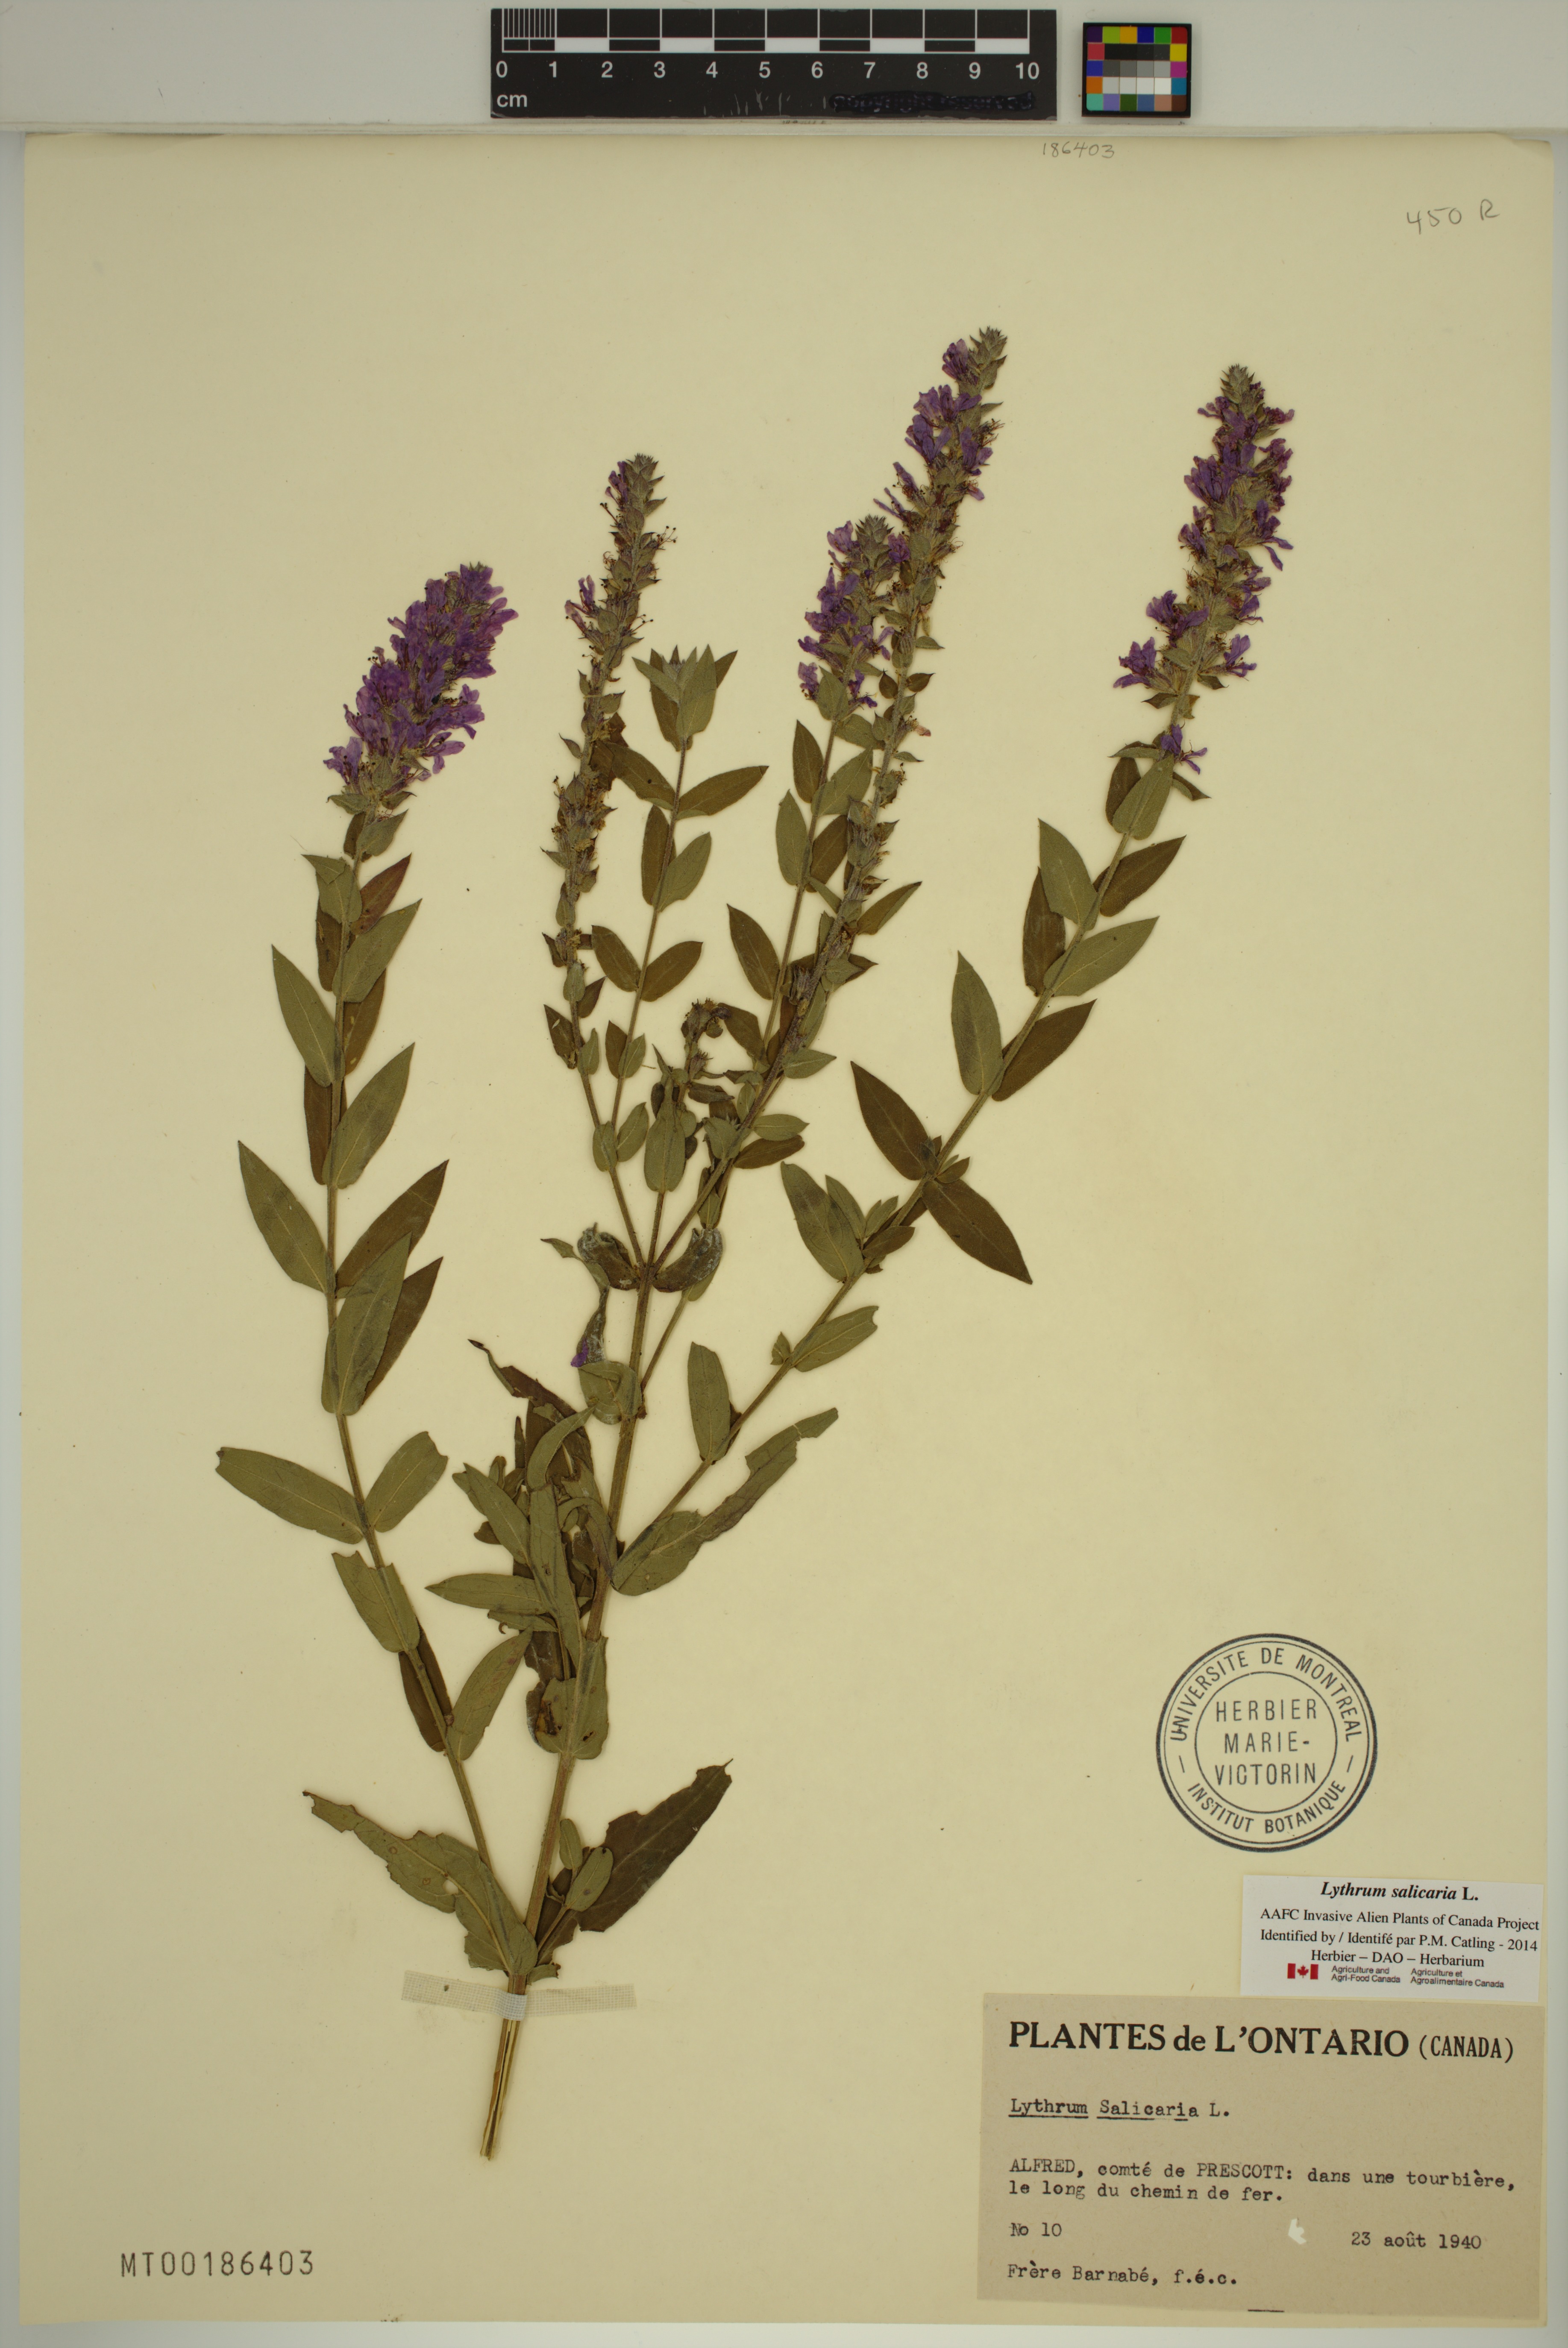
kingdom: Plantae
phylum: Tracheophyta
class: Magnoliopsida
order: Myrtales
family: Lythraceae
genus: Lythrum
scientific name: Lythrum salicaria
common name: Purple loosestrife
